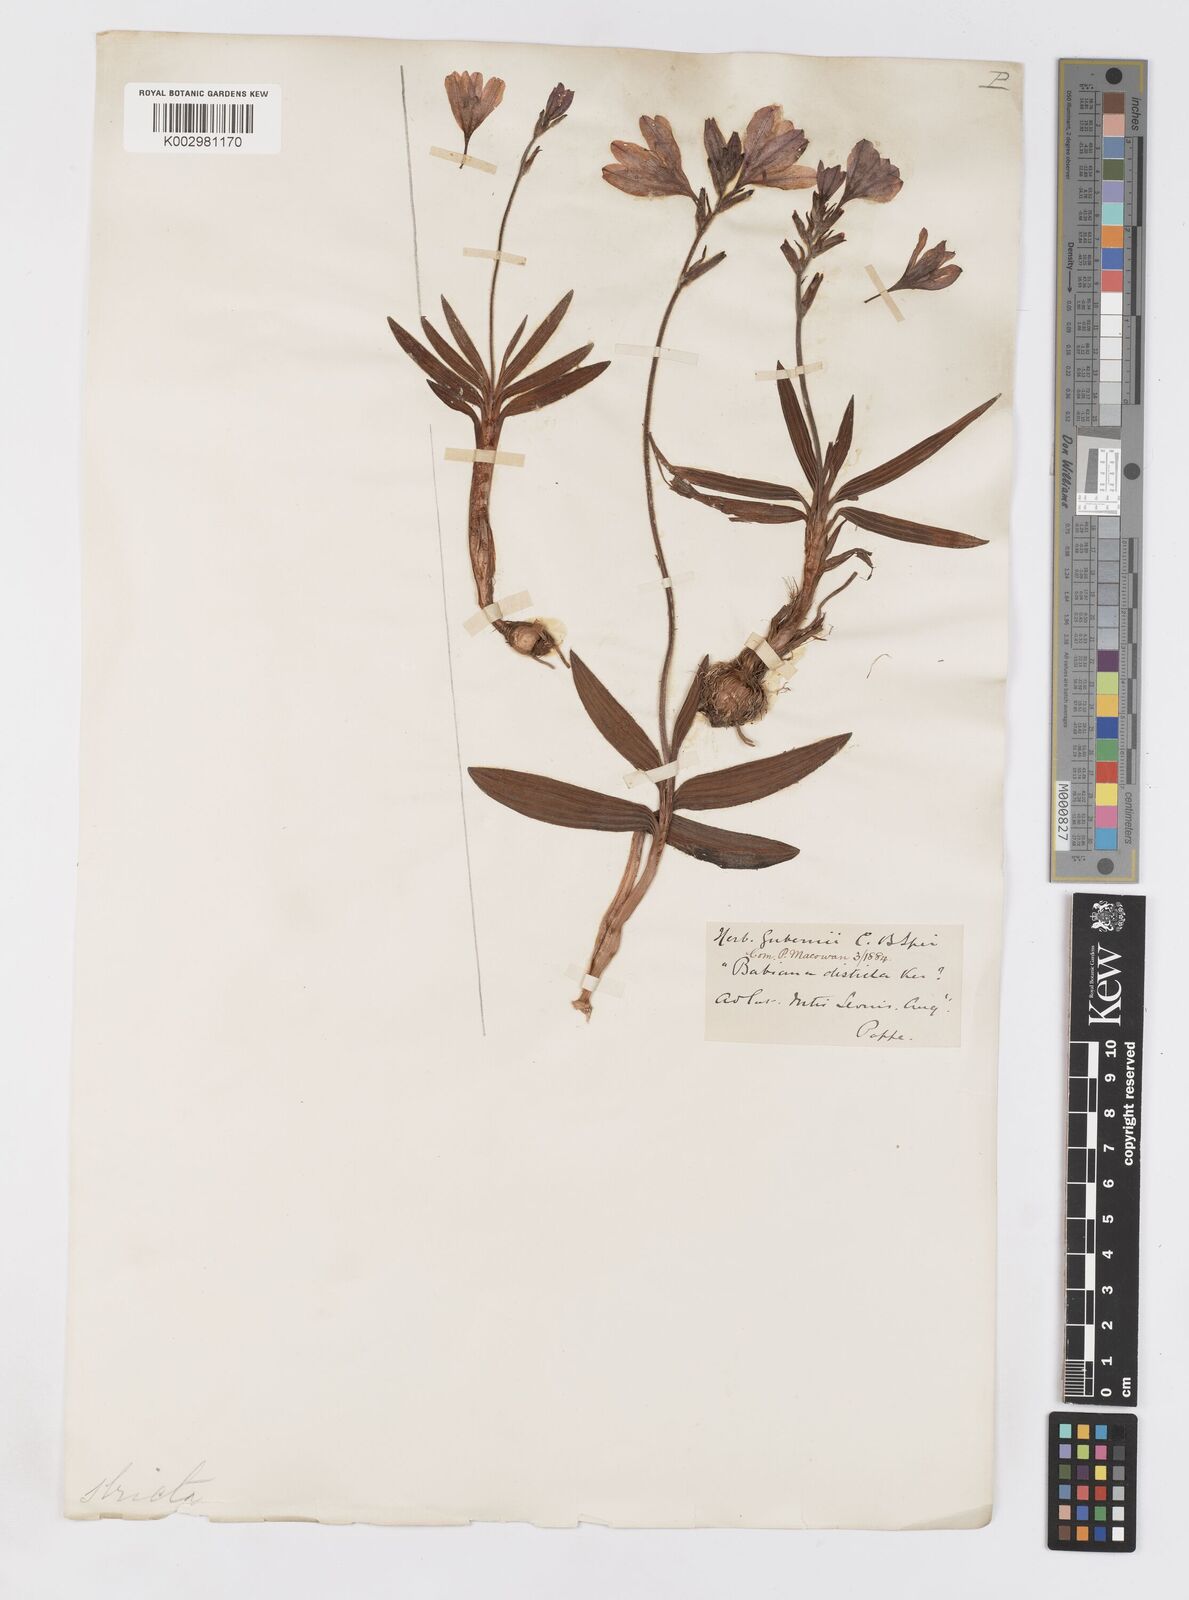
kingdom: Plantae
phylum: Tracheophyta
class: Liliopsida
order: Asparagales
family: Iridaceae
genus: Babiana
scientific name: Babiana
